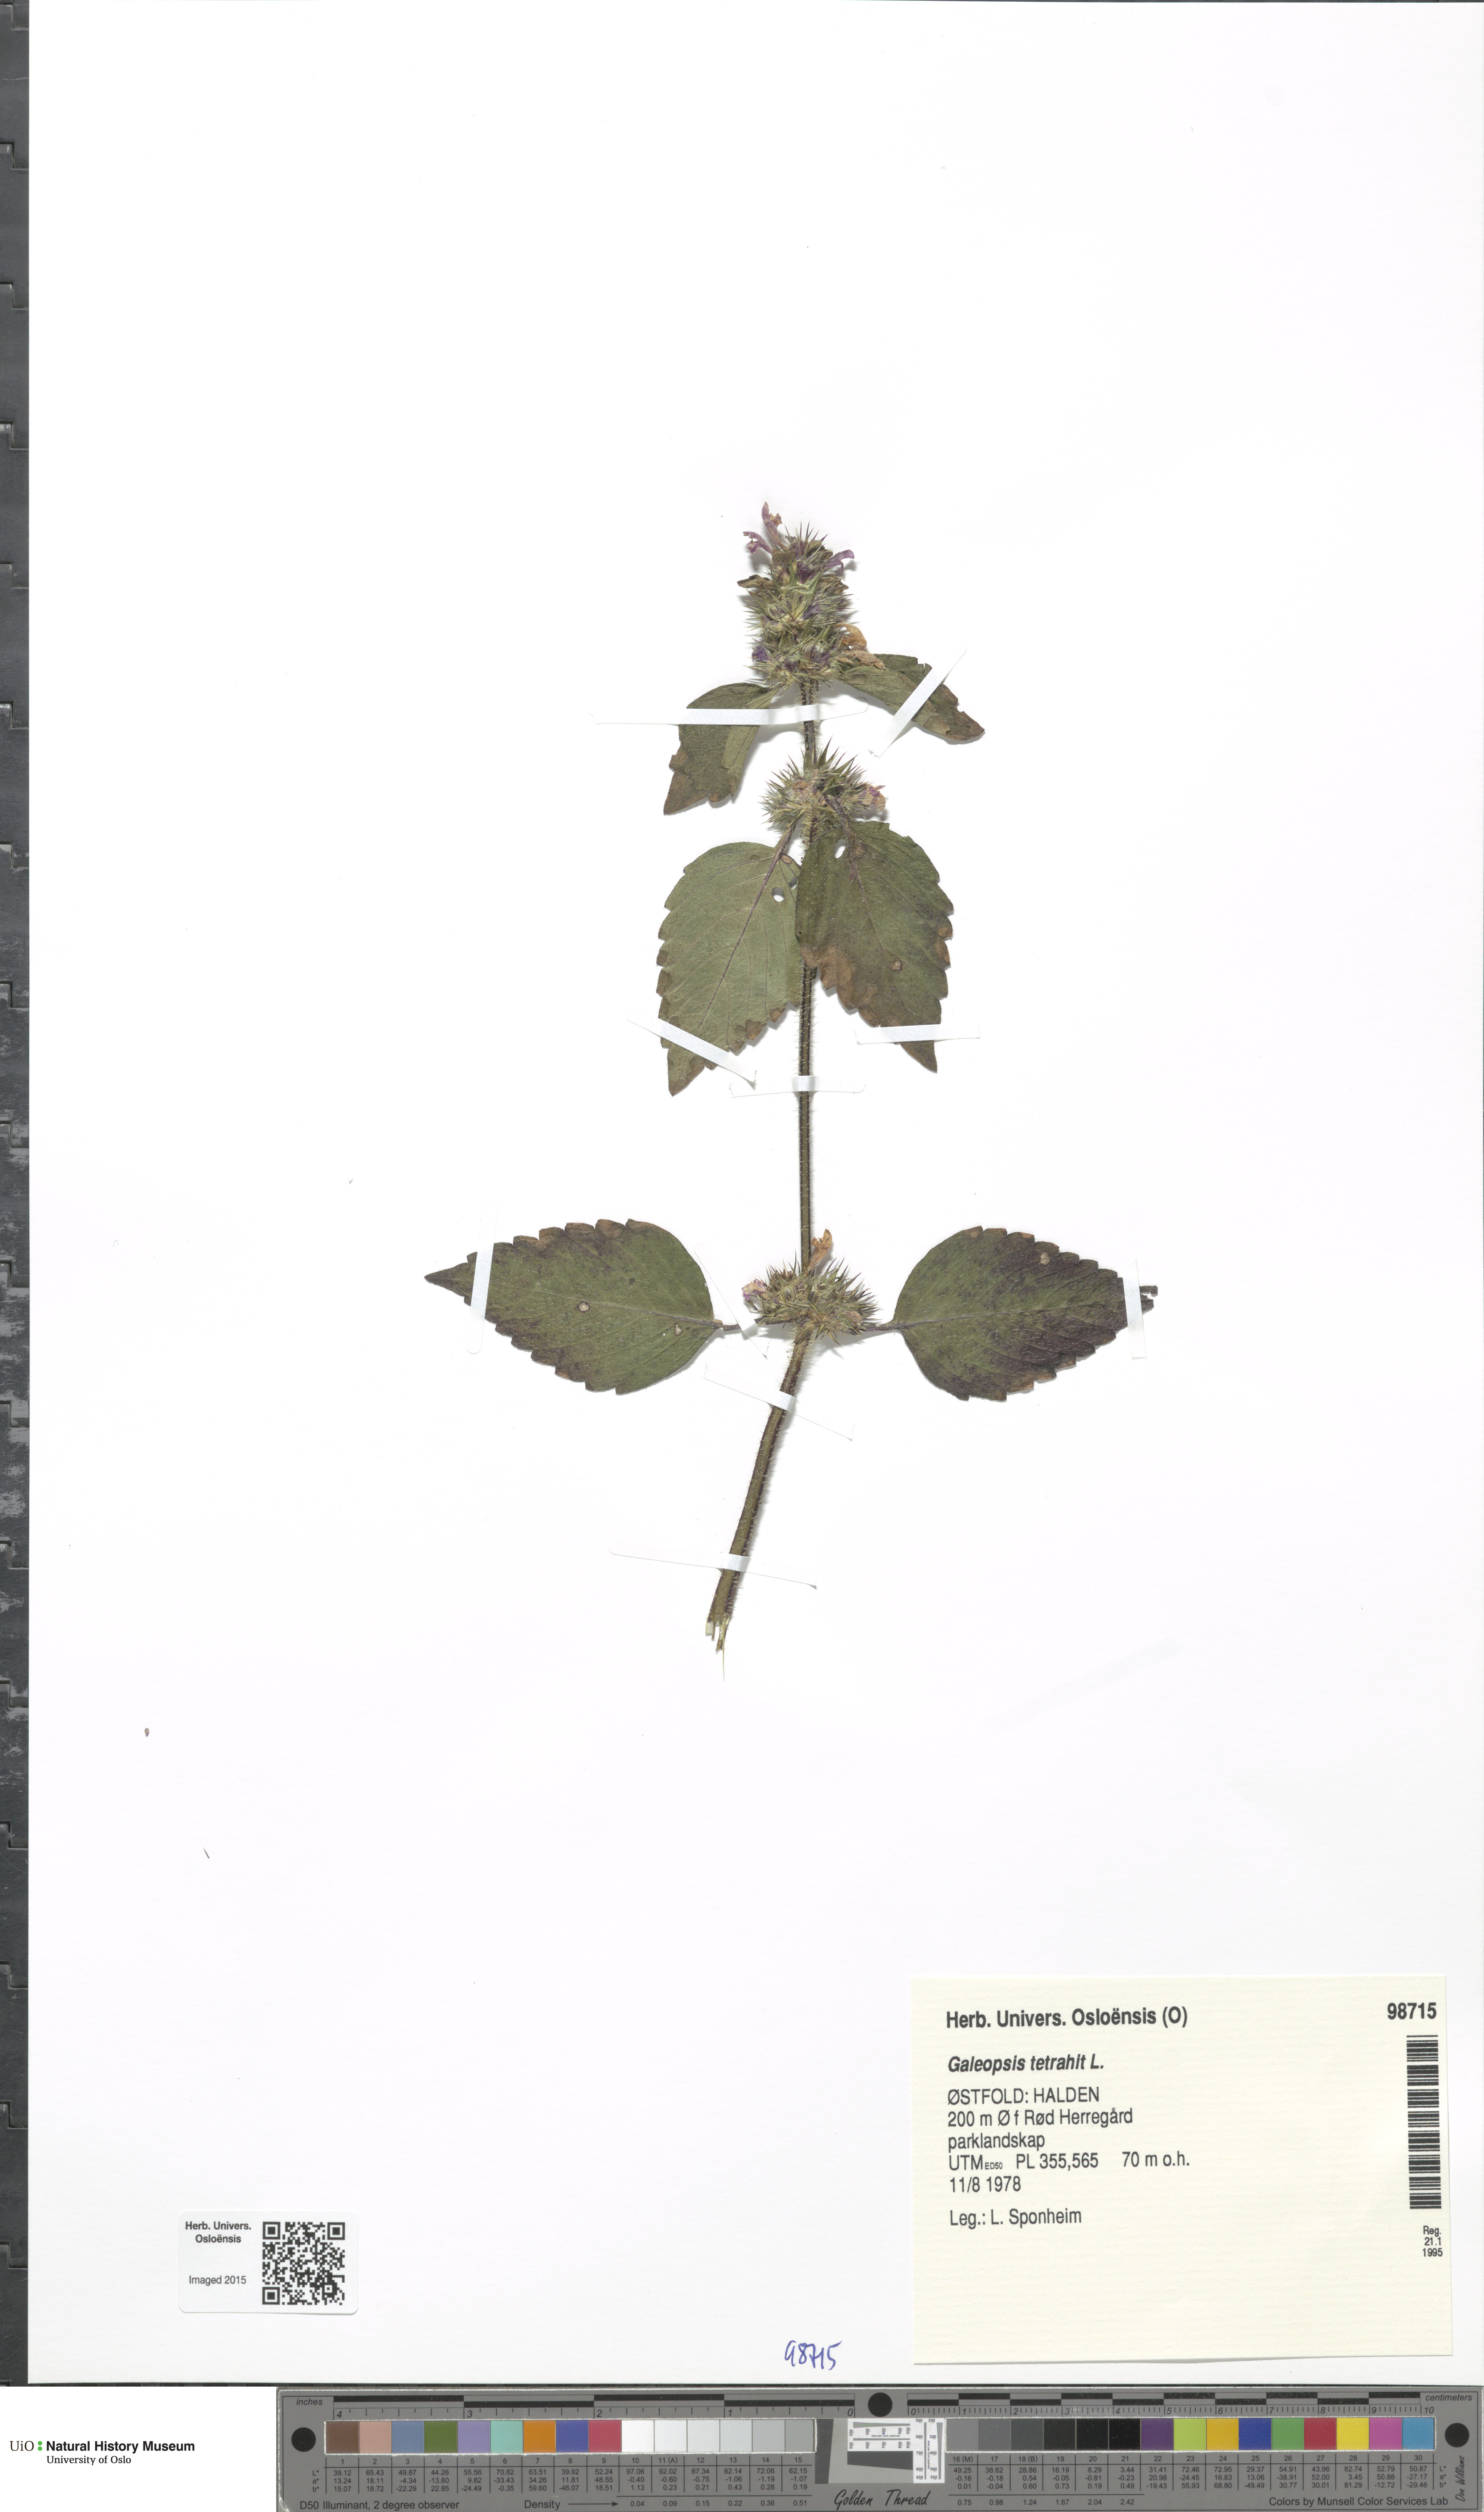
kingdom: Plantae
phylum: Tracheophyta
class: Magnoliopsida
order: Lamiales
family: Lamiaceae
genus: Galeopsis
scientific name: Galeopsis tetrahit
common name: Common hemp-nettle
